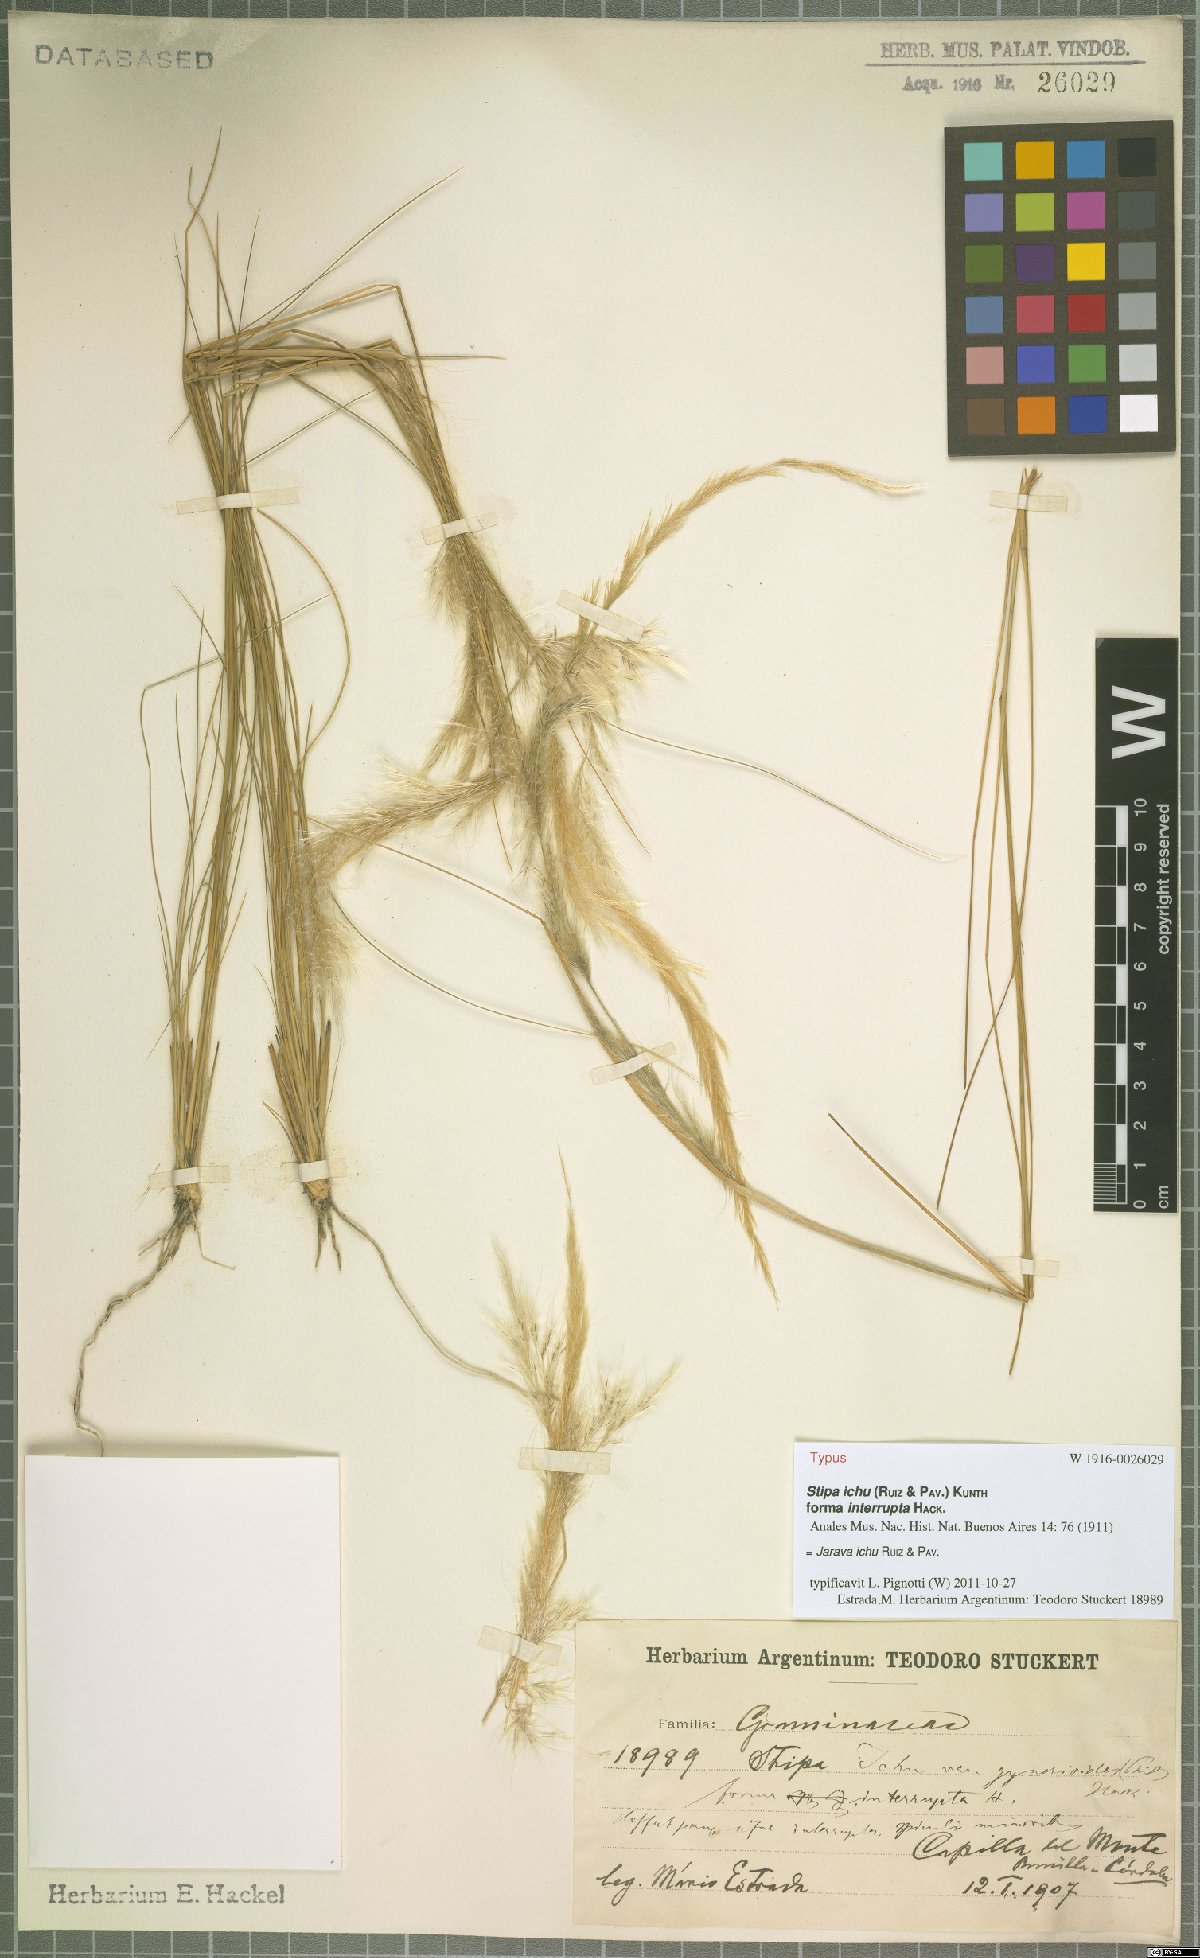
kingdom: Plantae
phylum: Tracheophyta
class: Liliopsida
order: Poales
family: Poaceae
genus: Jarava
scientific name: Jarava ichu
